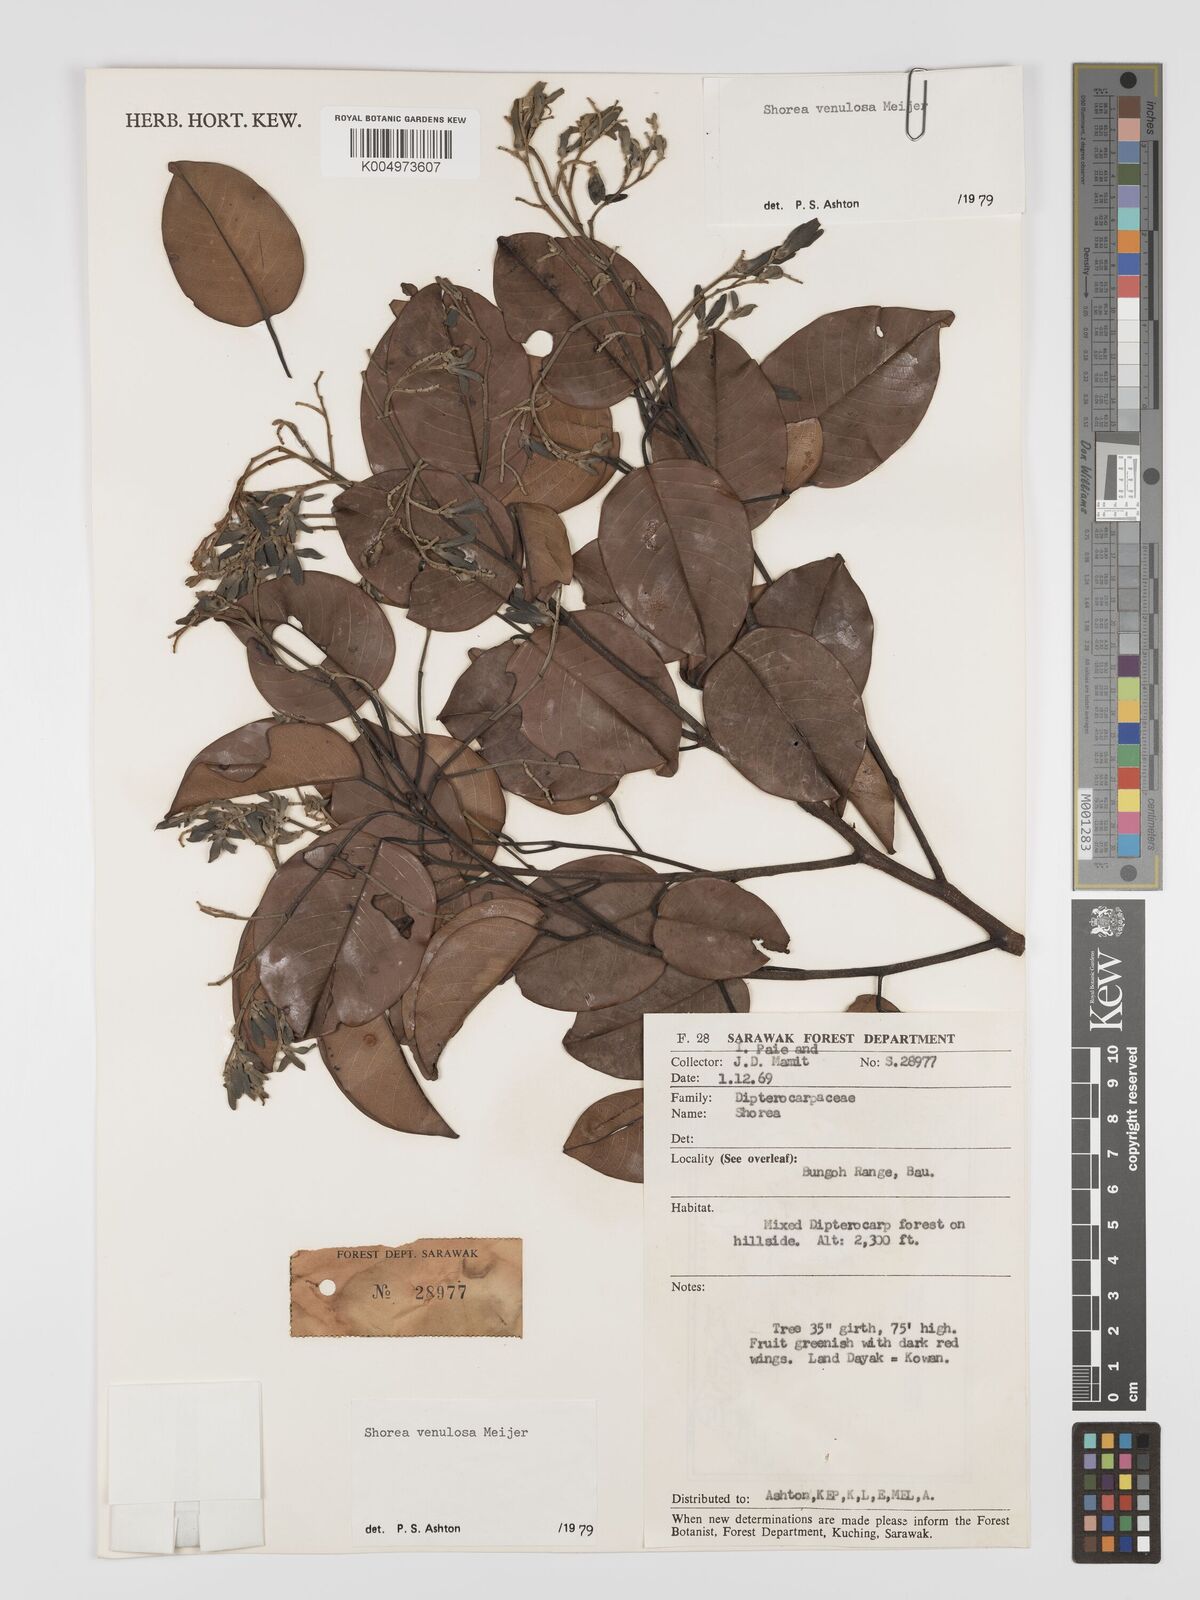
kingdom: Plantae
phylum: Tracheophyta
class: Magnoliopsida
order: Malvales
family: Dipterocarpaceae
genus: Shorea
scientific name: Shorea venulosa
